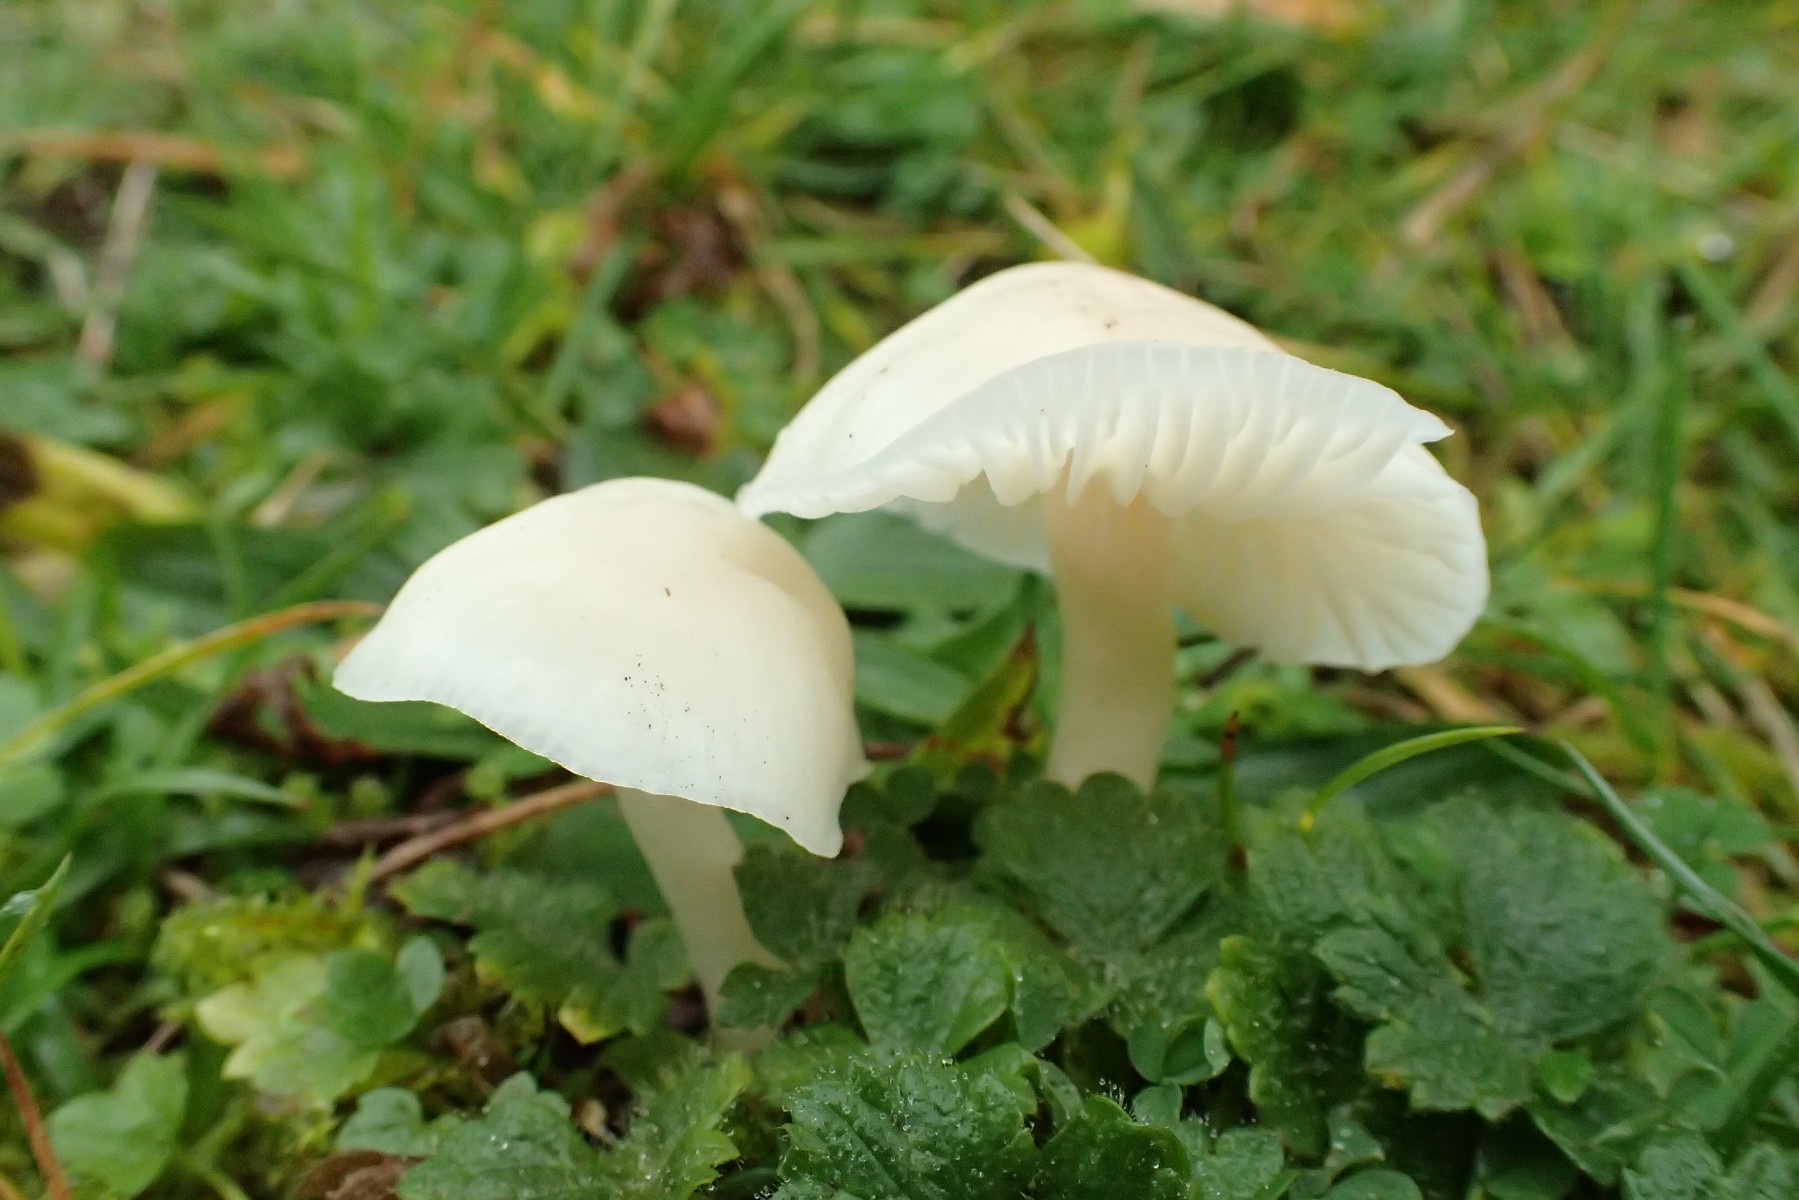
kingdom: Fungi
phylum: Basidiomycota
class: Agaricomycetes
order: Agaricales
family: Hygrophoraceae
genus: Cuphophyllus
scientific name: Cuphophyllus virgineus
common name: snehvid vokshat
